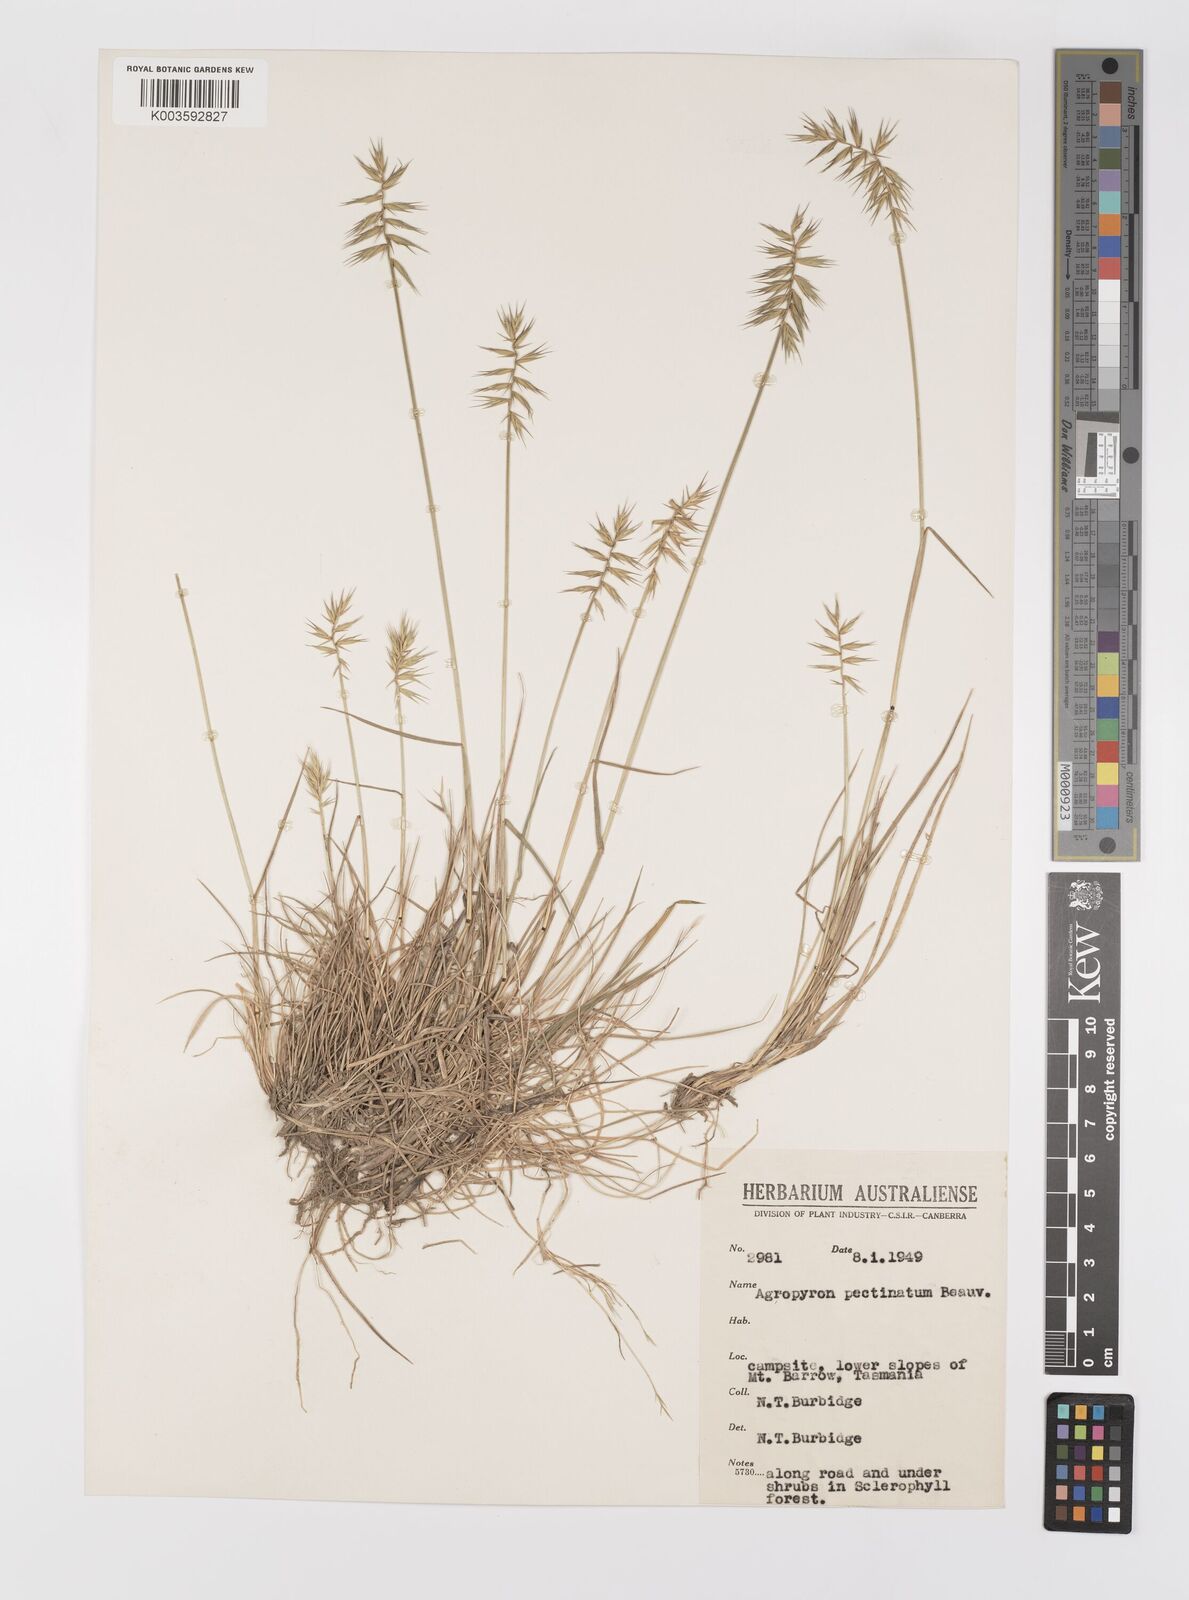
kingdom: Plantae
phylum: Tracheophyta
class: Liliopsida
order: Poales
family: Poaceae
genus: Australopyrum
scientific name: Australopyrum pectinatum
